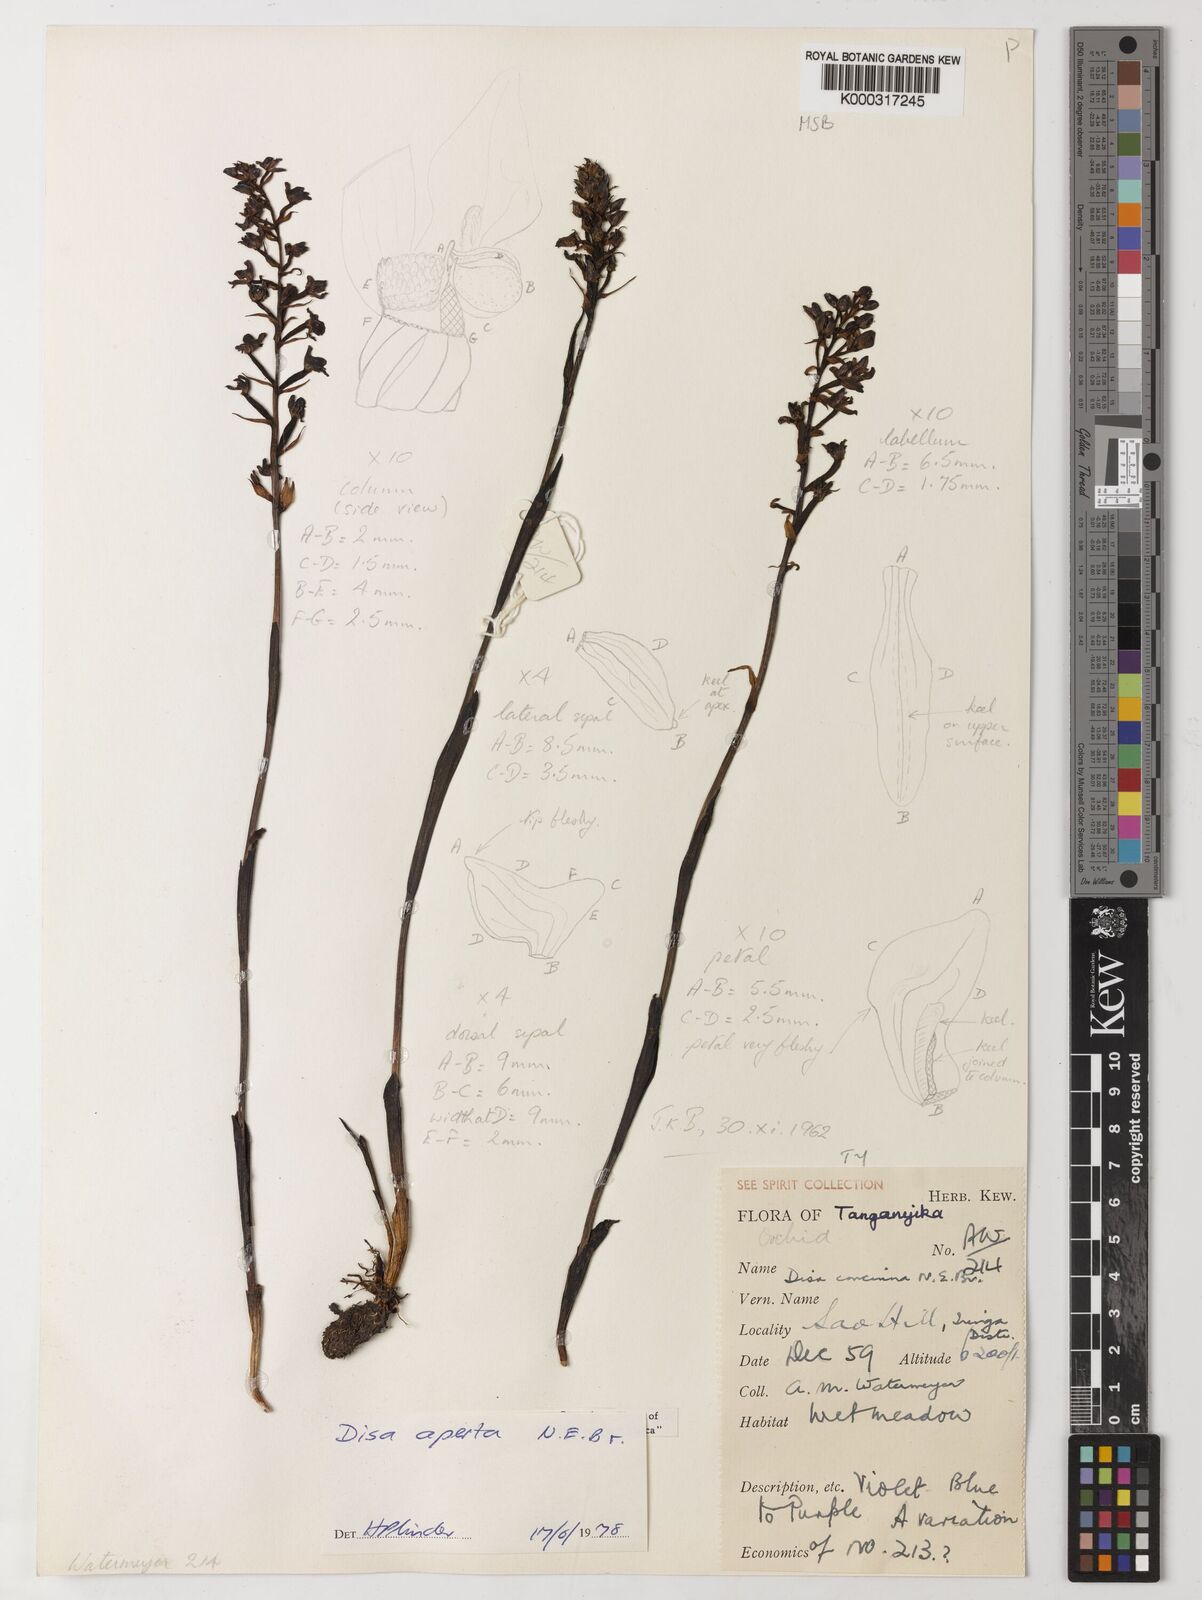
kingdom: Plantae
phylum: Tracheophyta
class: Liliopsida
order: Asparagales
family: Orchidaceae
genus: Disa
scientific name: Disa aperta
